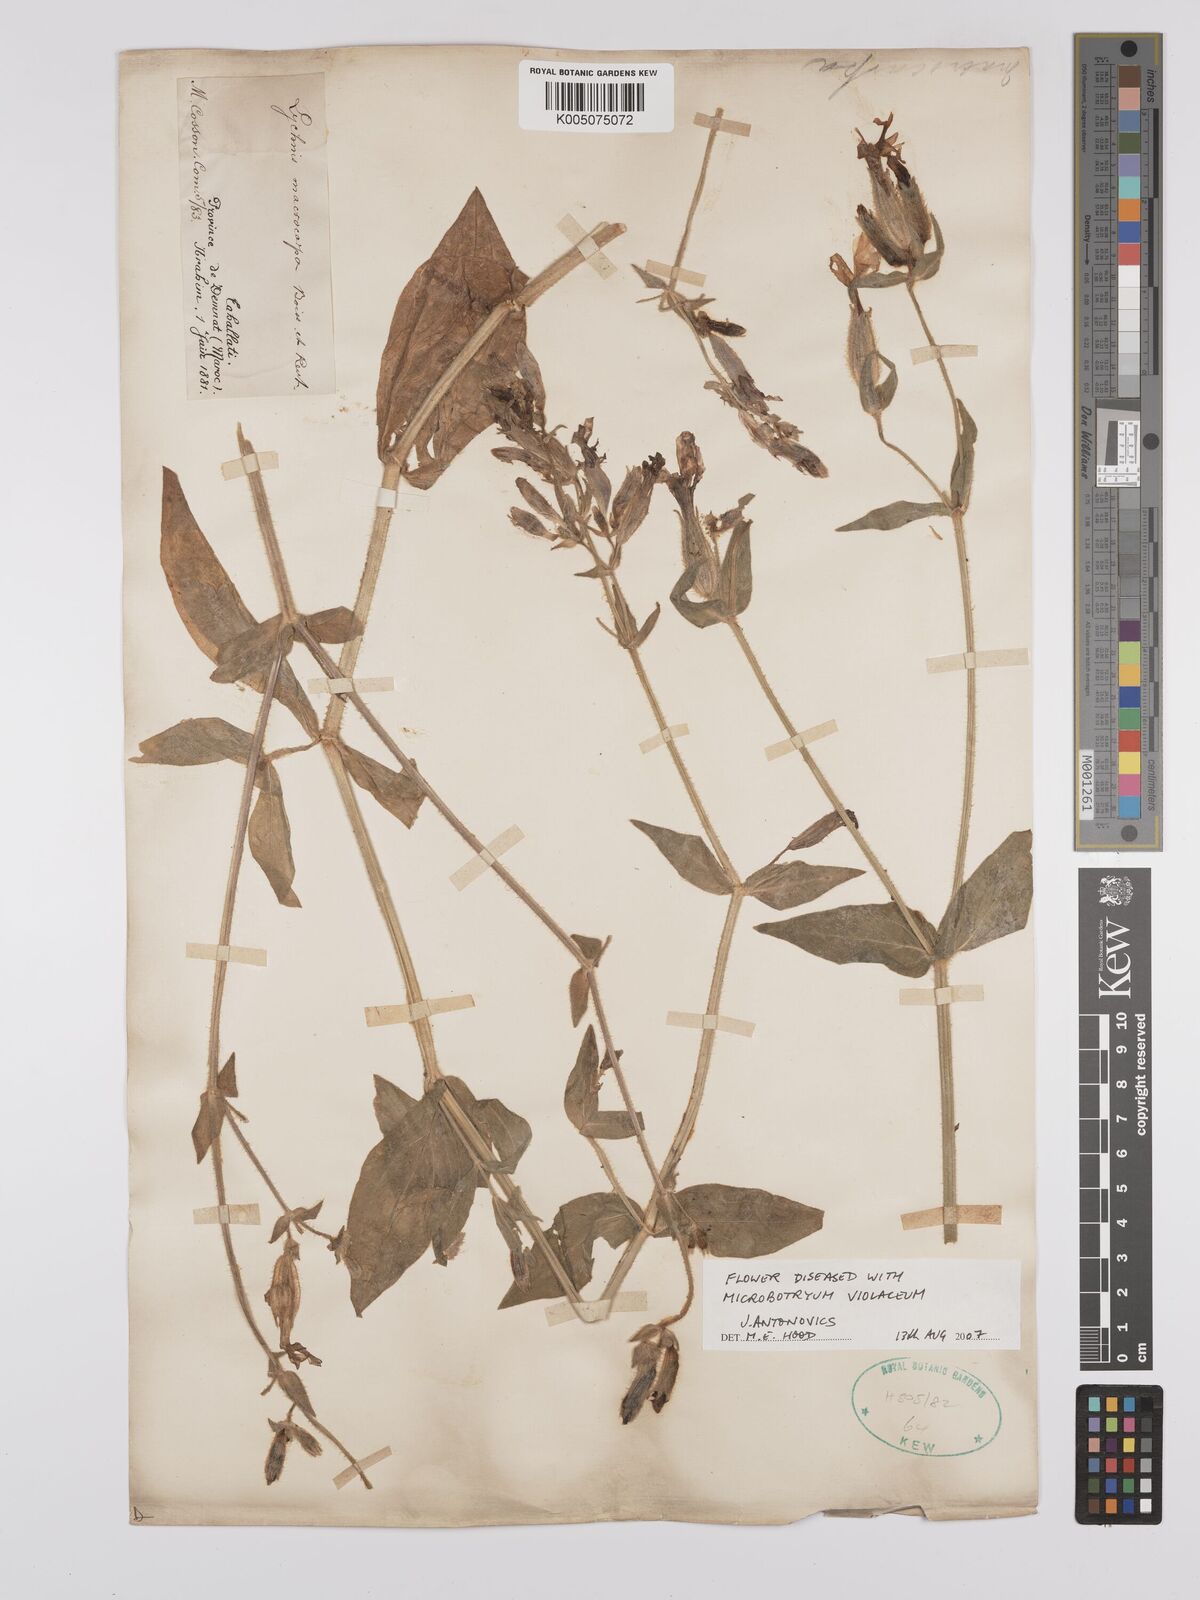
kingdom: Plantae
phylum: Tracheophyta
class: Magnoliopsida
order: Caryophyllales
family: Caryophyllaceae
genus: Silene
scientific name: Silene
